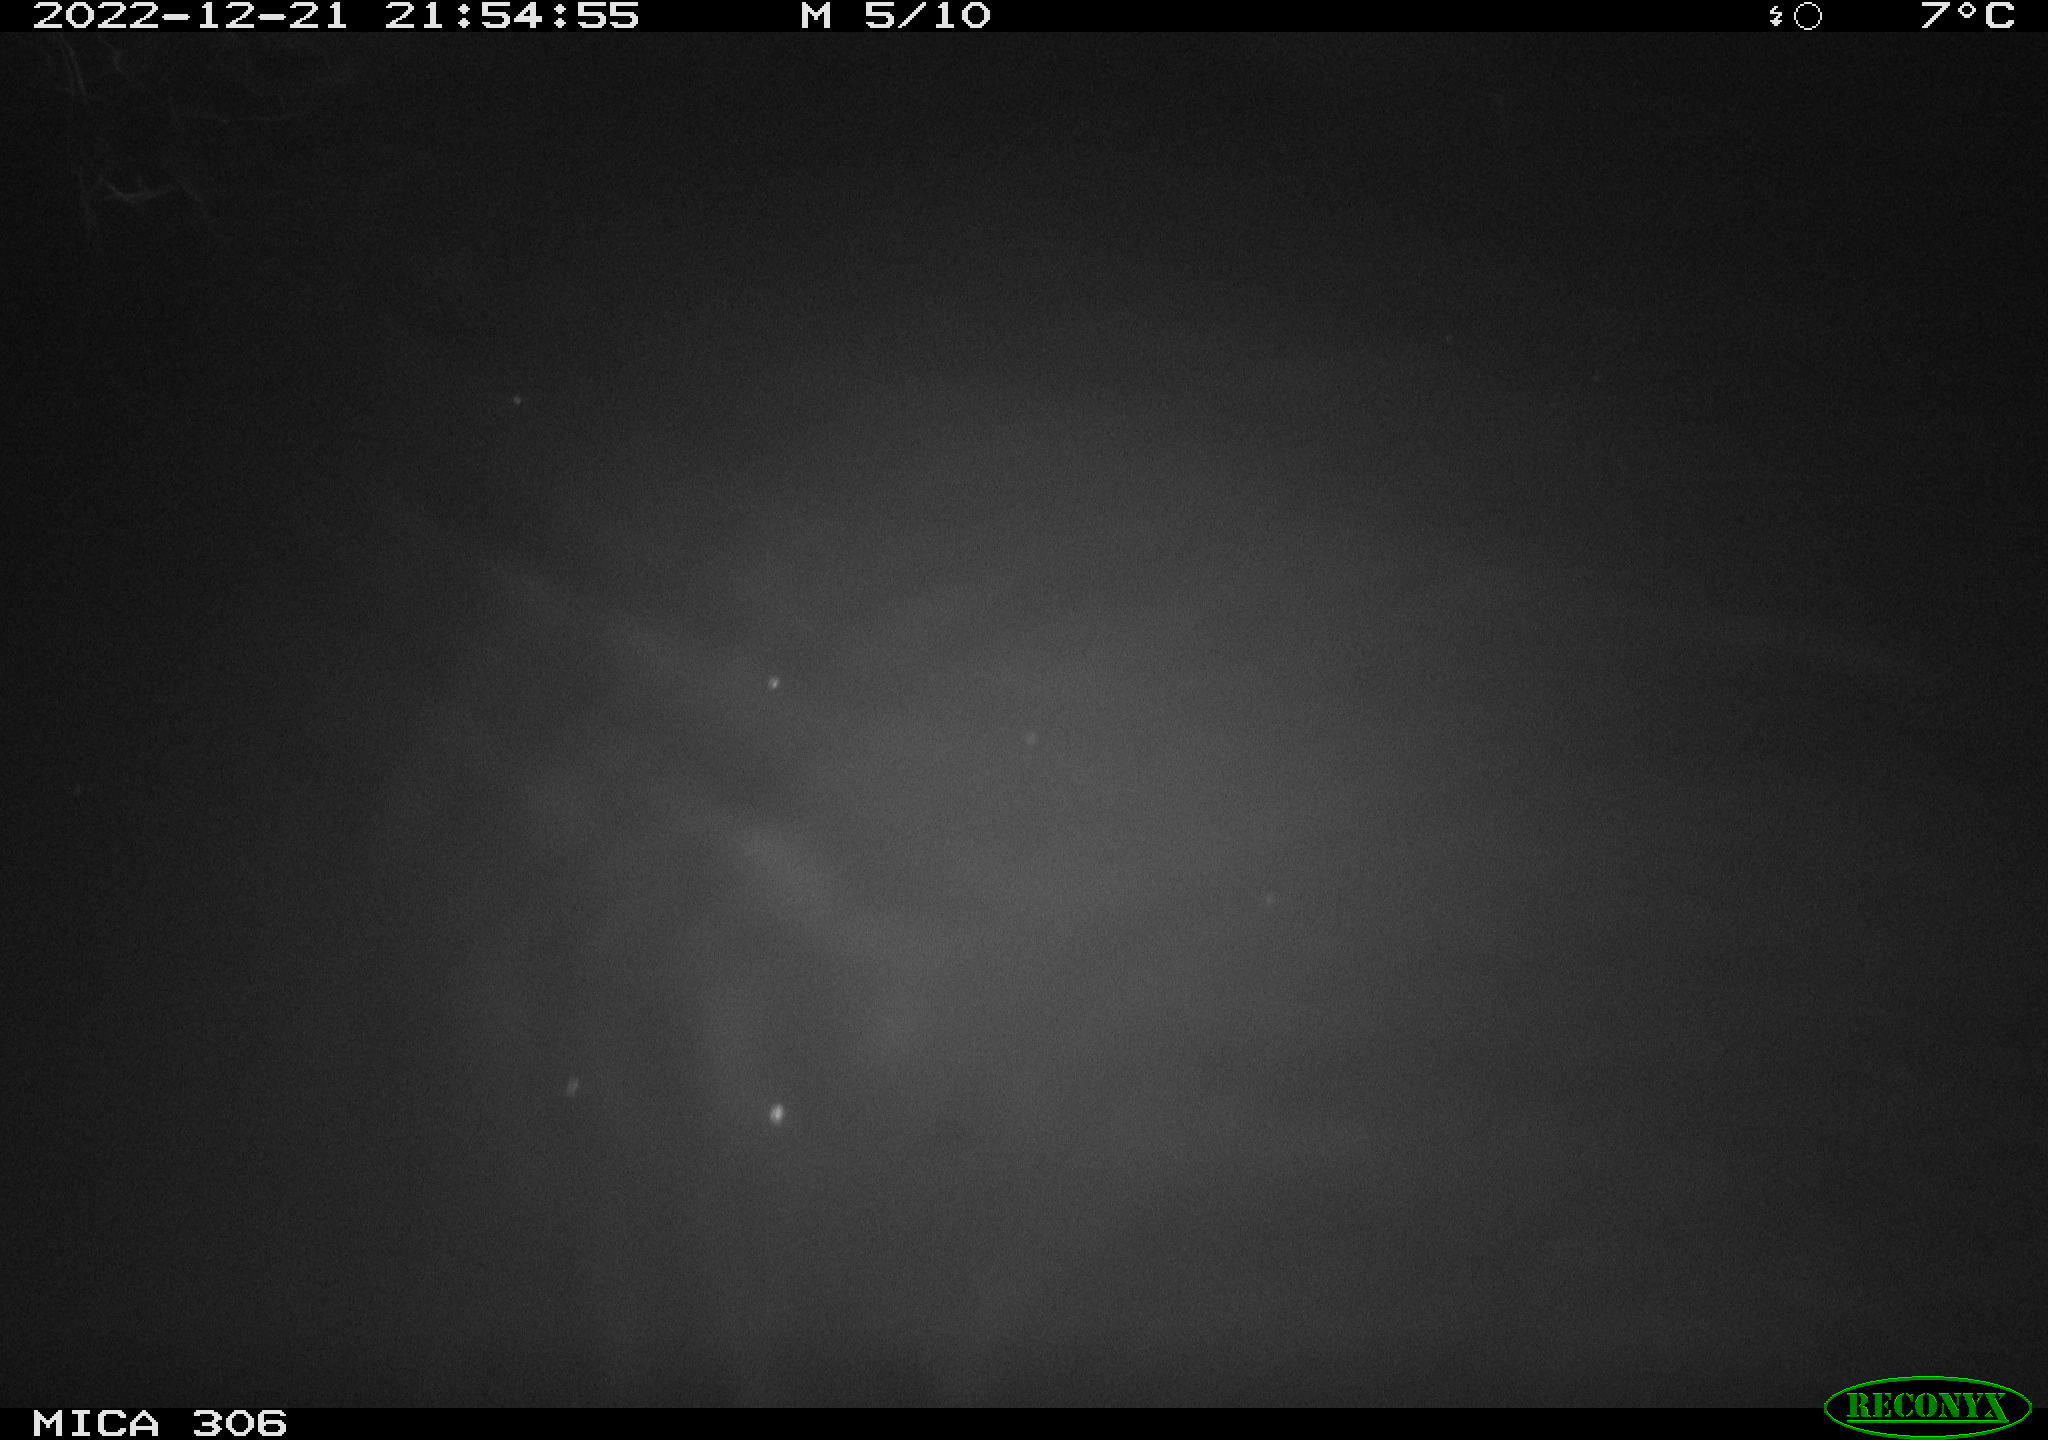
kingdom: Animalia
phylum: Chordata
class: Mammalia
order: Rodentia
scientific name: Rodentia
